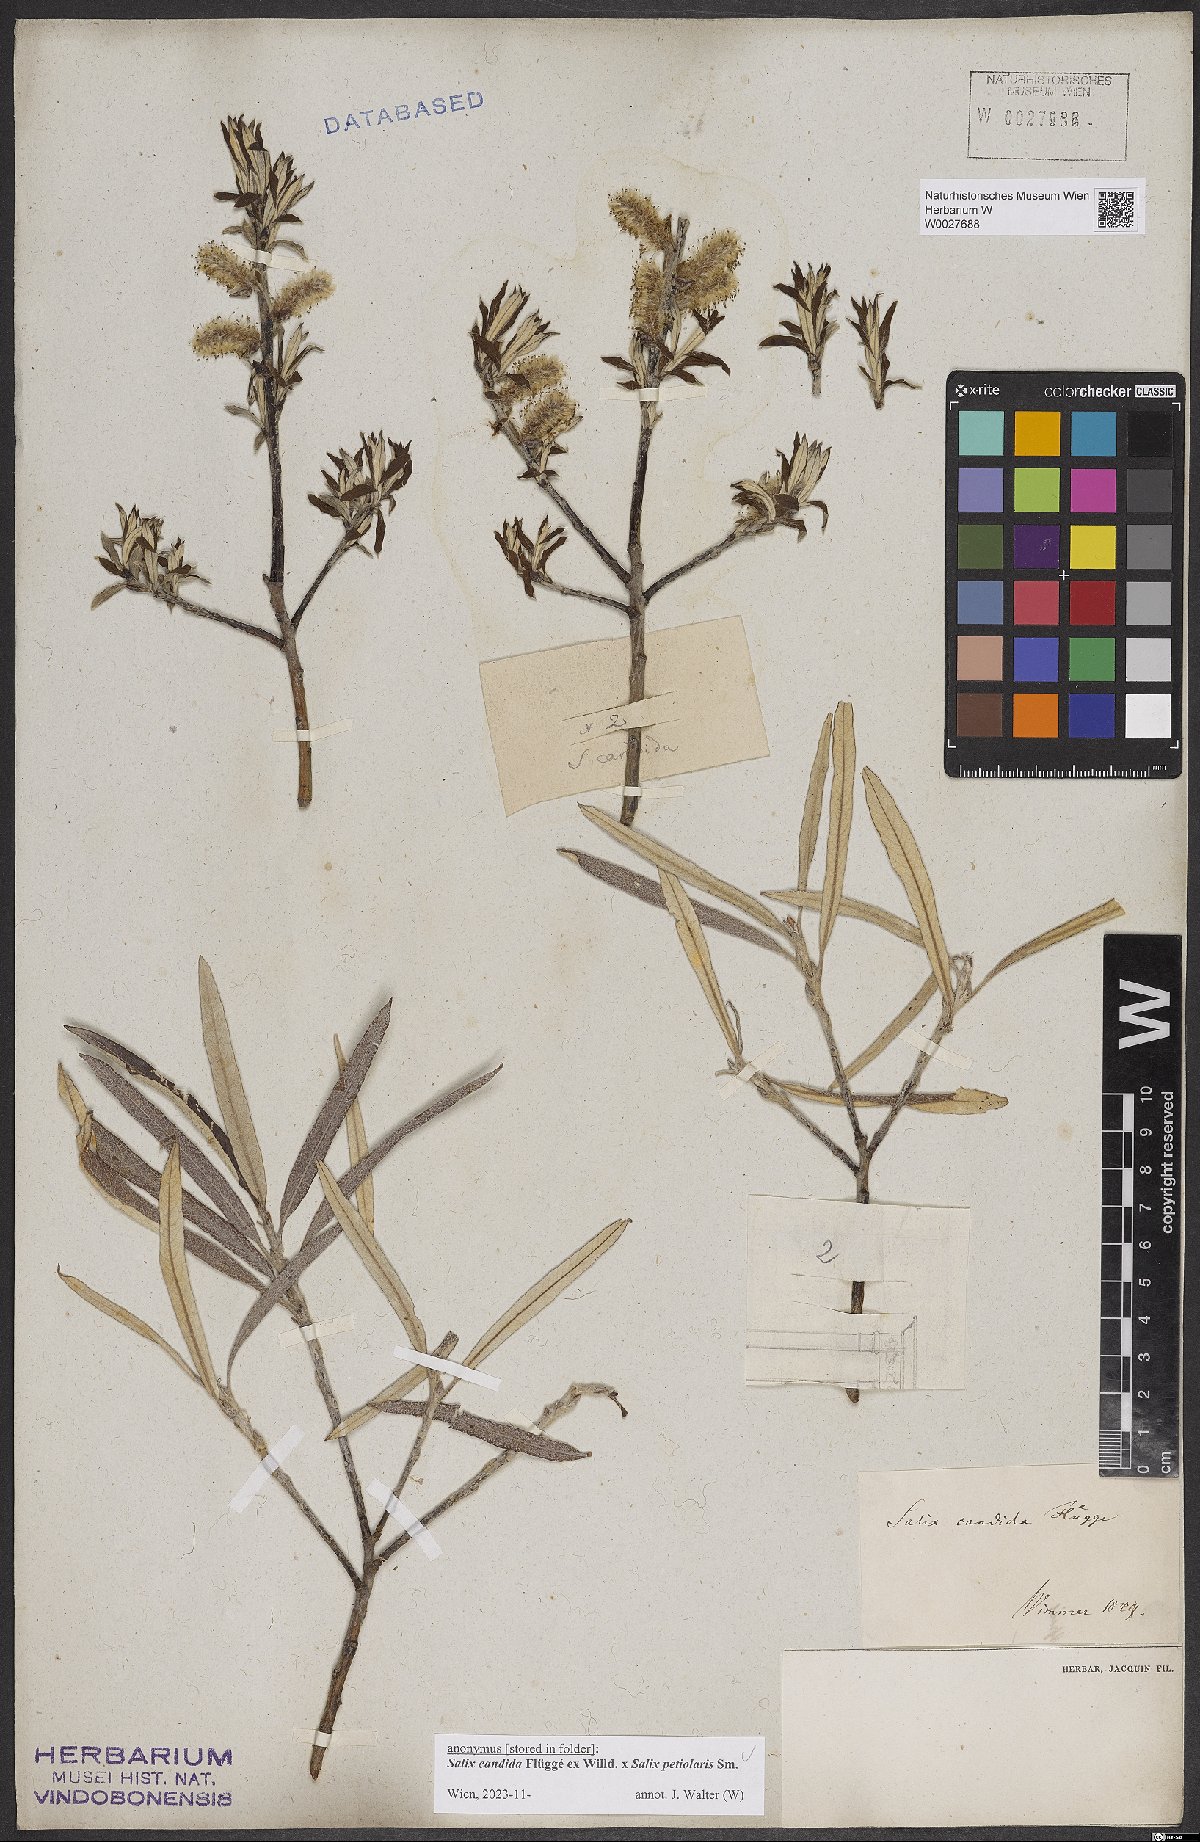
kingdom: Plantae
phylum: Tracheophyta
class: Magnoliopsida
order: Malpighiales
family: Salicaceae
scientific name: Salicaceae
